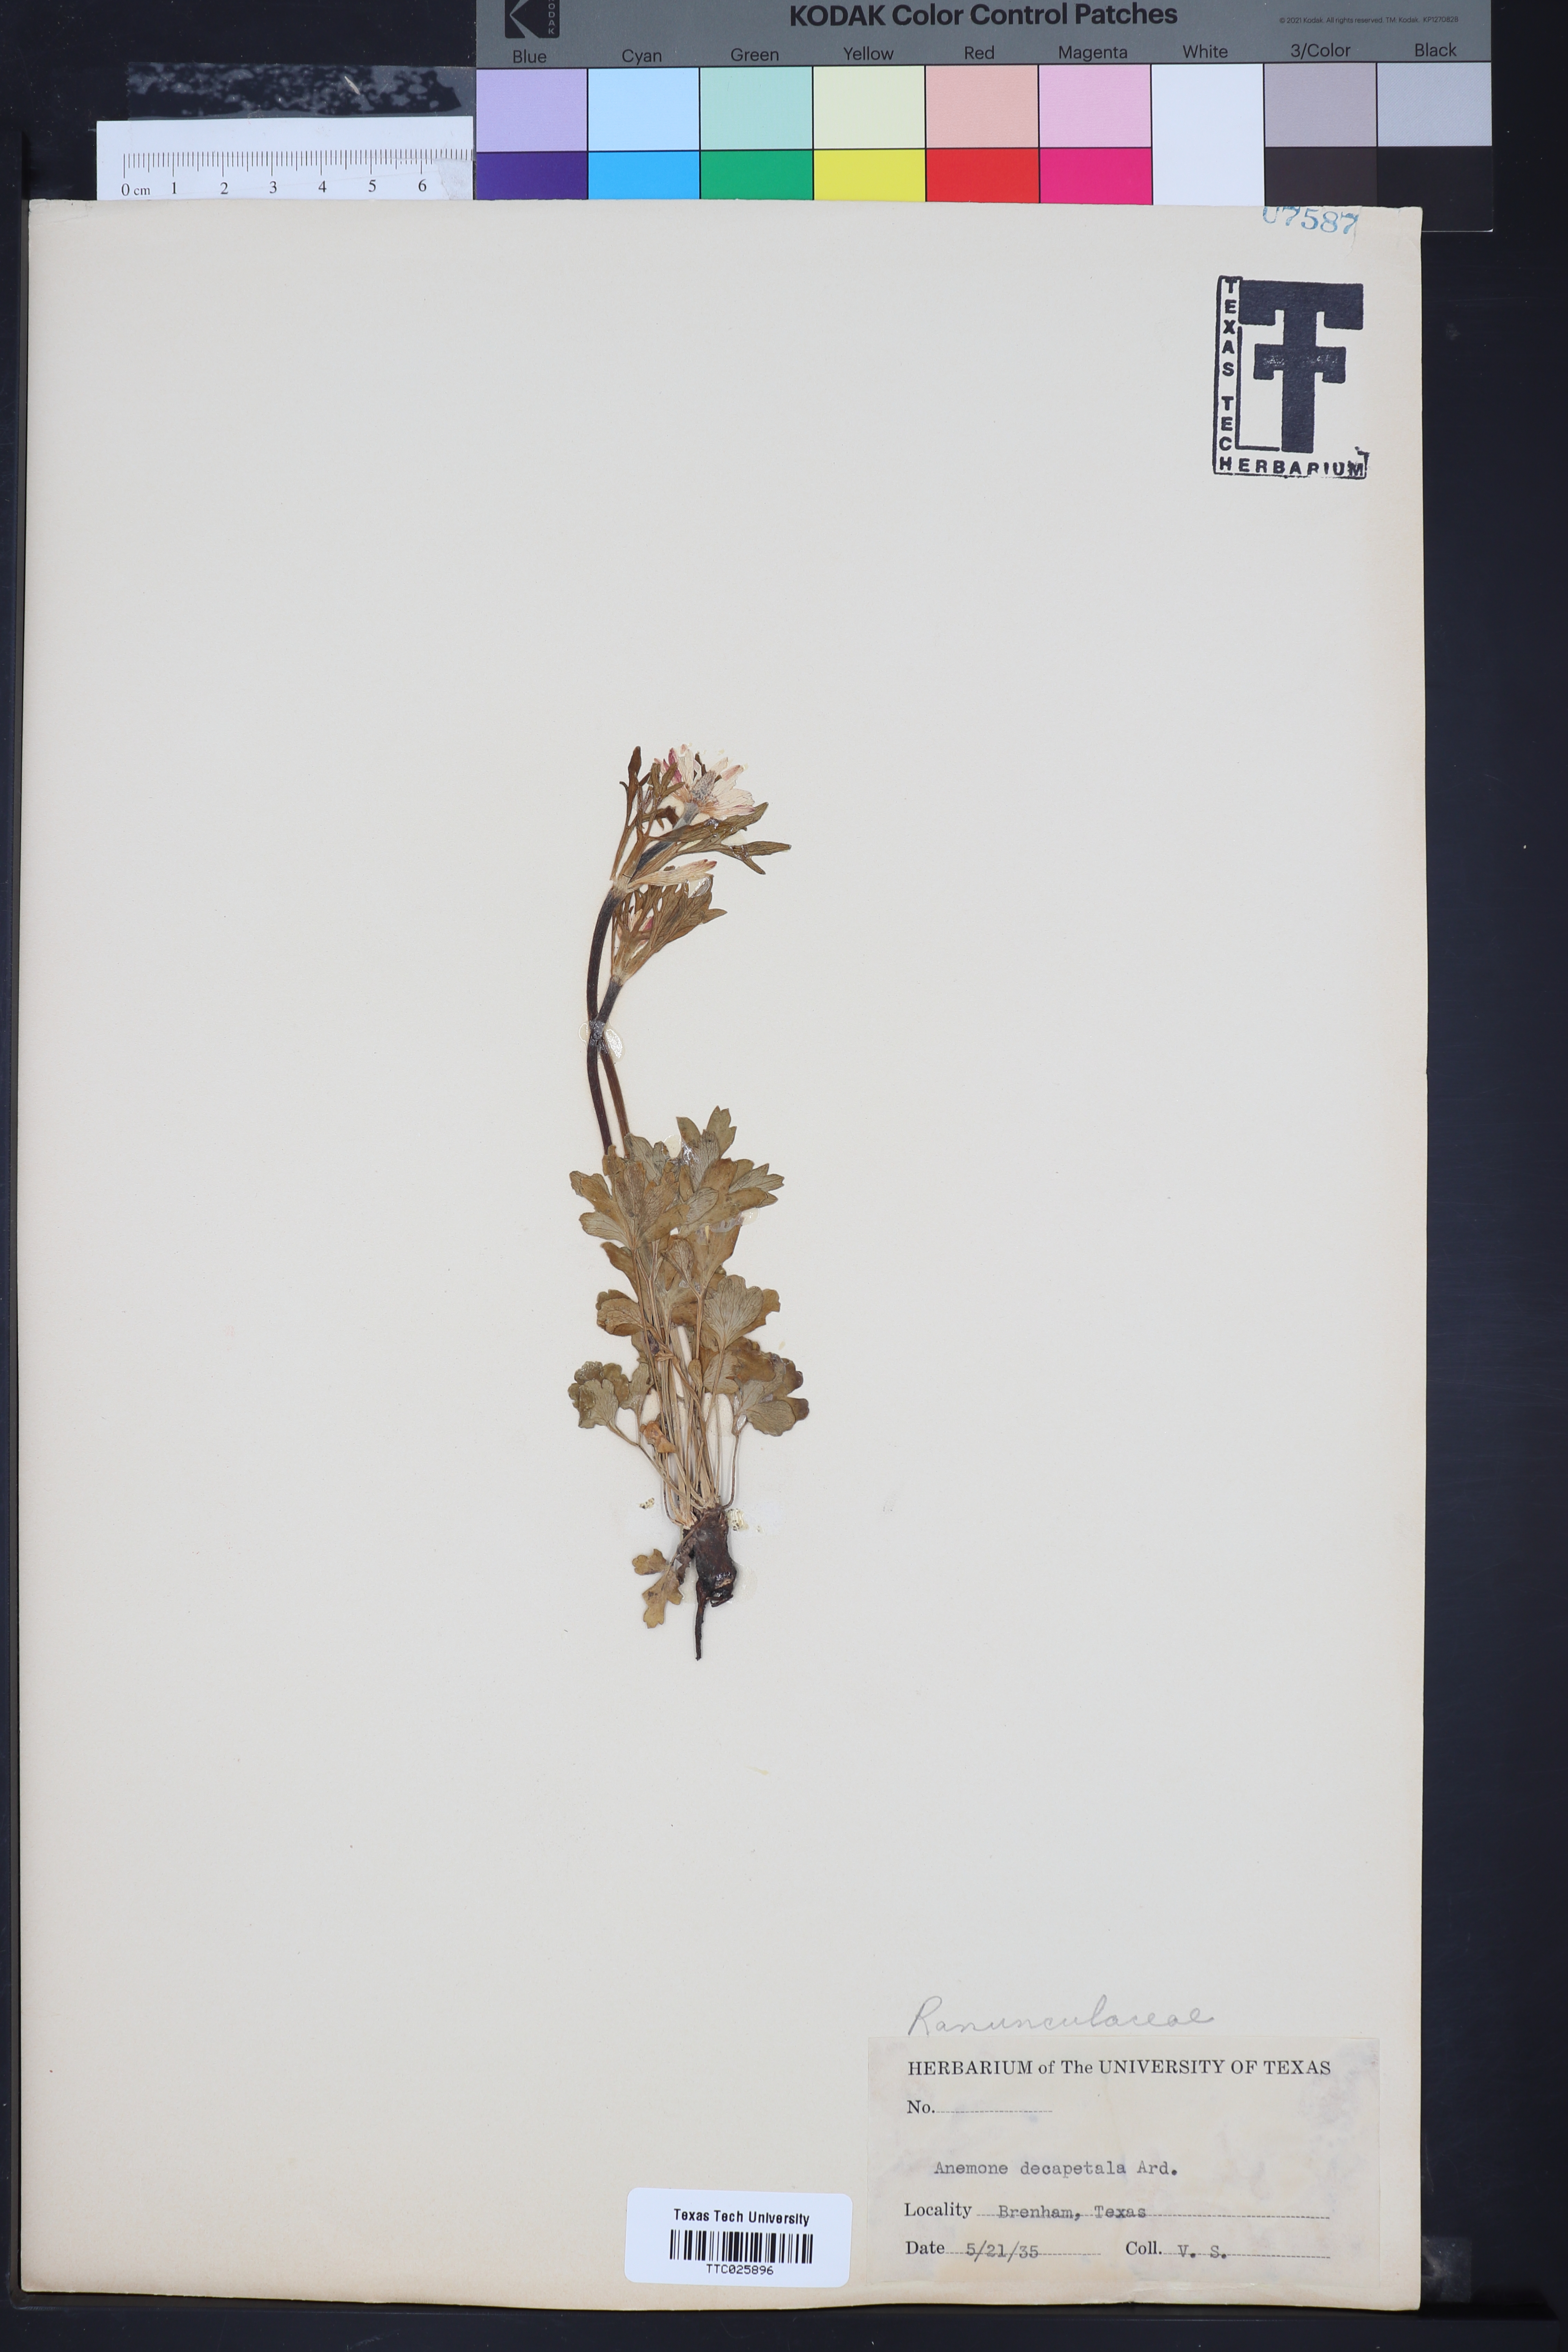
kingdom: Plantae
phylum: Tracheophyta
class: Magnoliopsida
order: Ranunculales
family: Ranunculaceae
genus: Anemone
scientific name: Anemone decapetala
